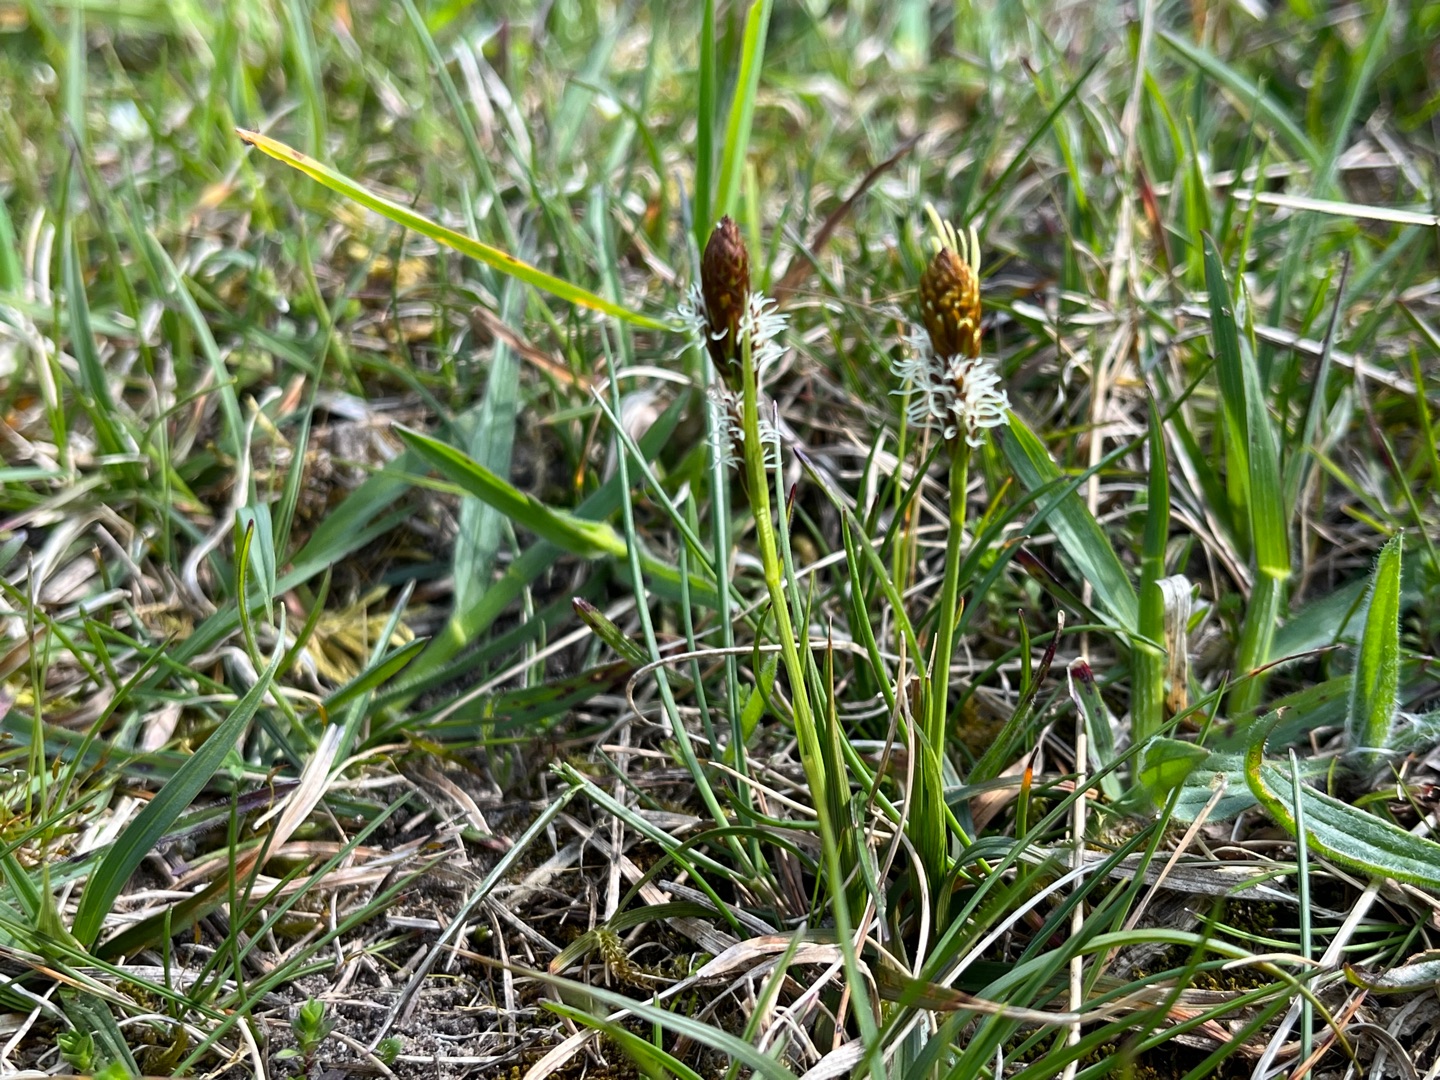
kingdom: Plantae
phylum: Tracheophyta
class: Liliopsida
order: Poales
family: Cyperaceae
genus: Carex
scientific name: Carex caryophyllea
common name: Vår-star
